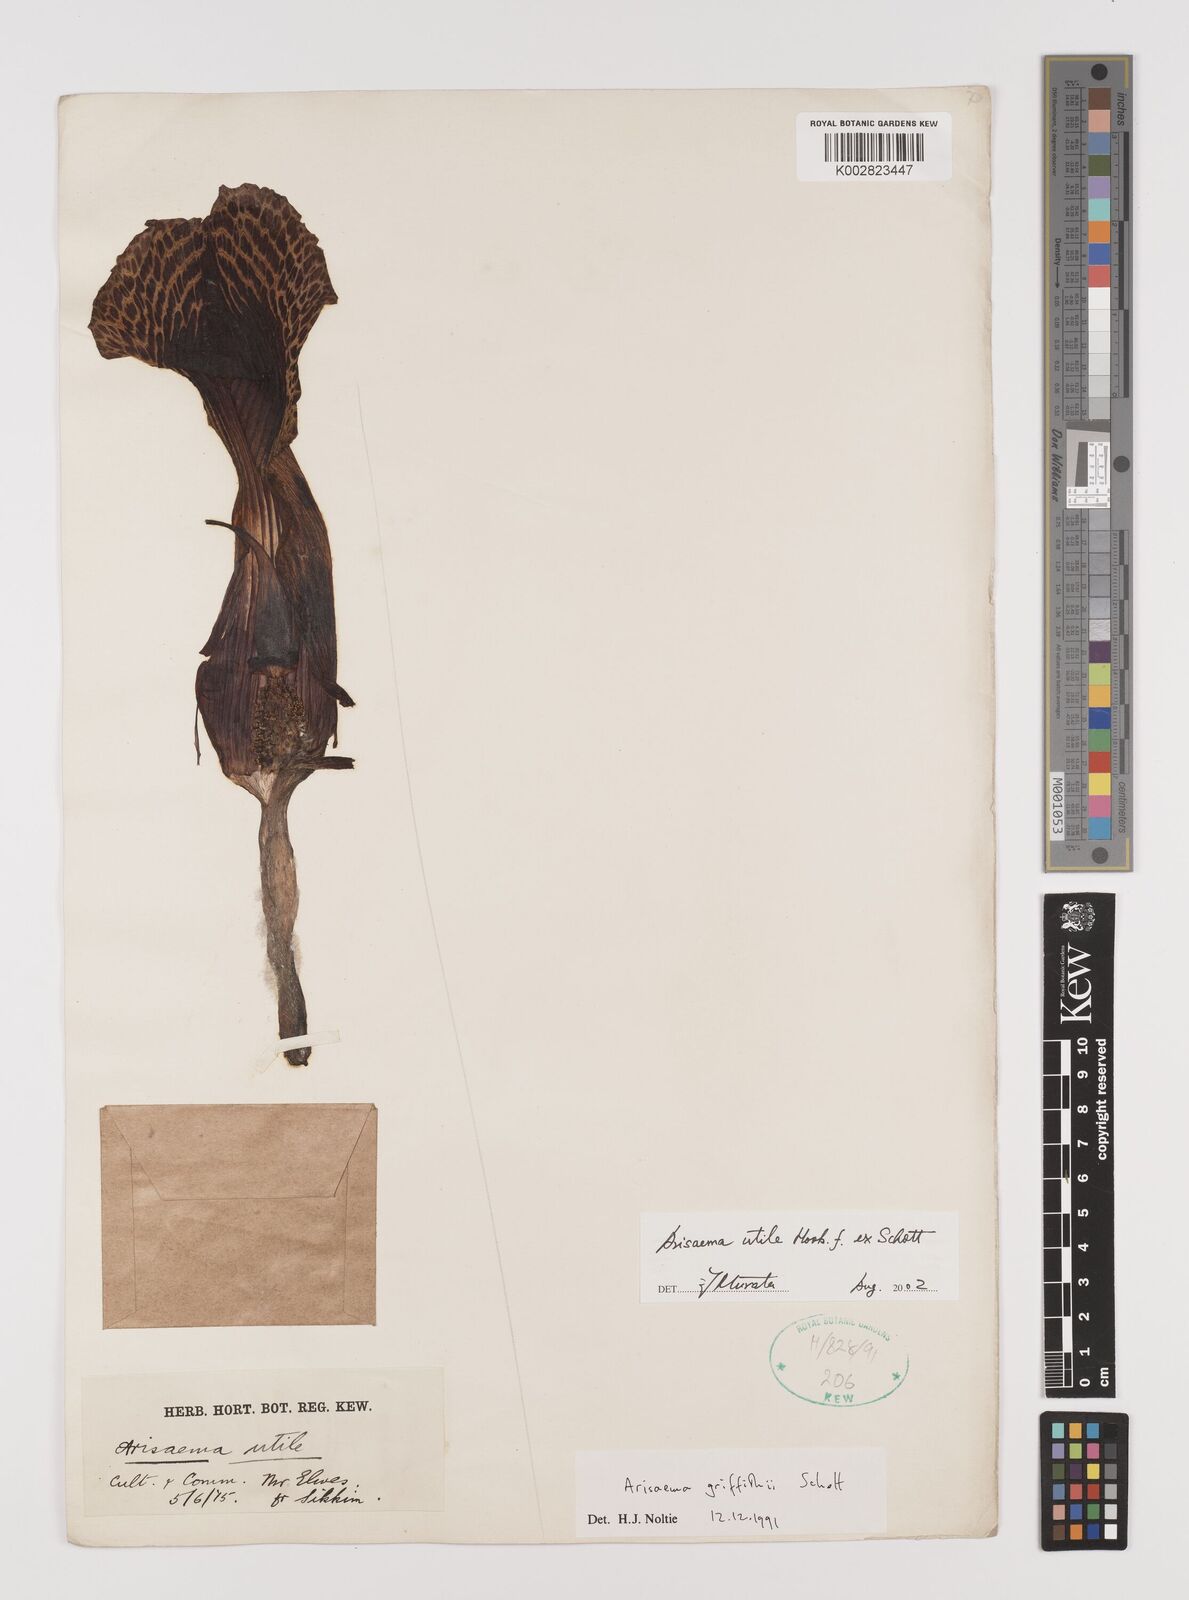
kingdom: Plantae
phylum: Tracheophyta
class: Liliopsida
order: Alismatales
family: Araceae
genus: Arisaema
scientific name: Arisaema utile
